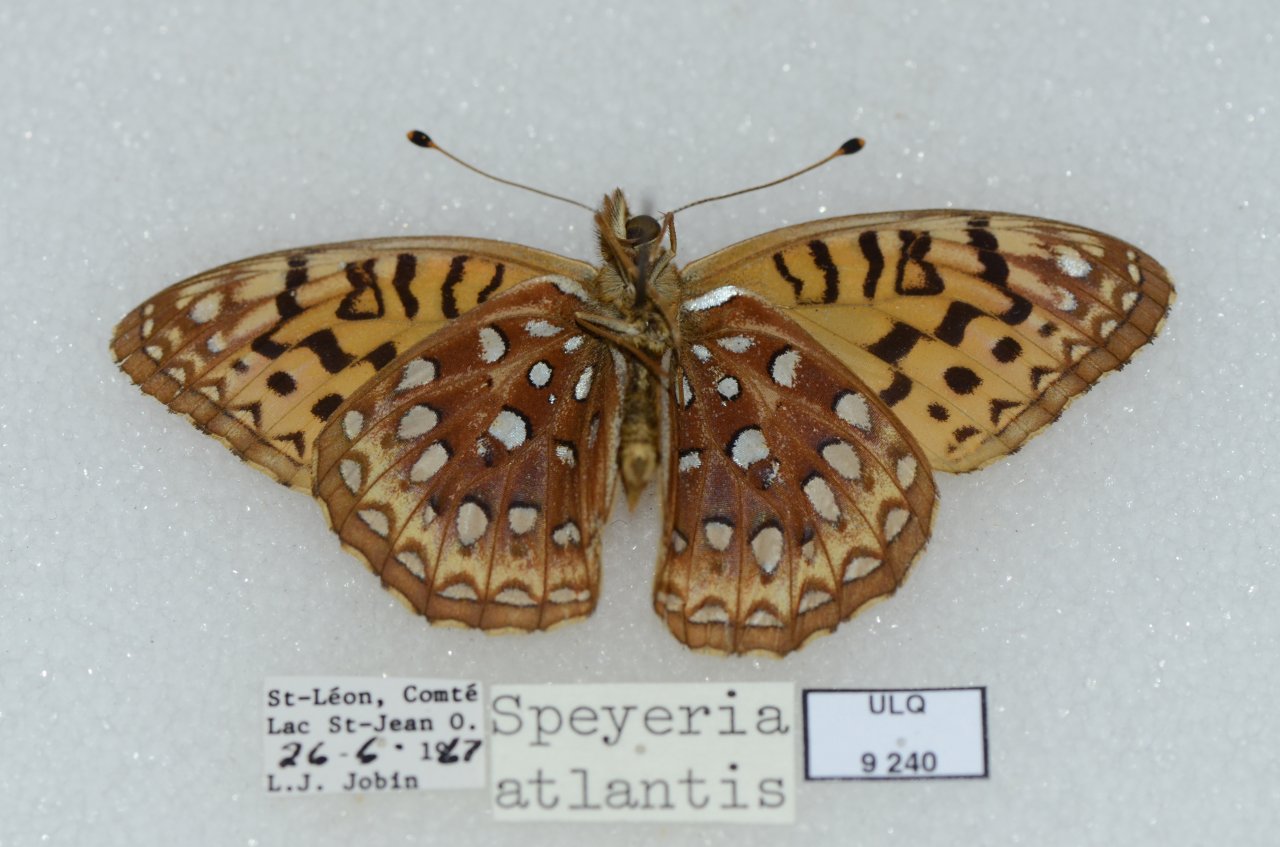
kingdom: Animalia
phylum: Arthropoda
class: Insecta
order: Lepidoptera
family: Nymphalidae
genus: Speyeria
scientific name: Speyeria aphrodite
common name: Aphrodite Fritillary
